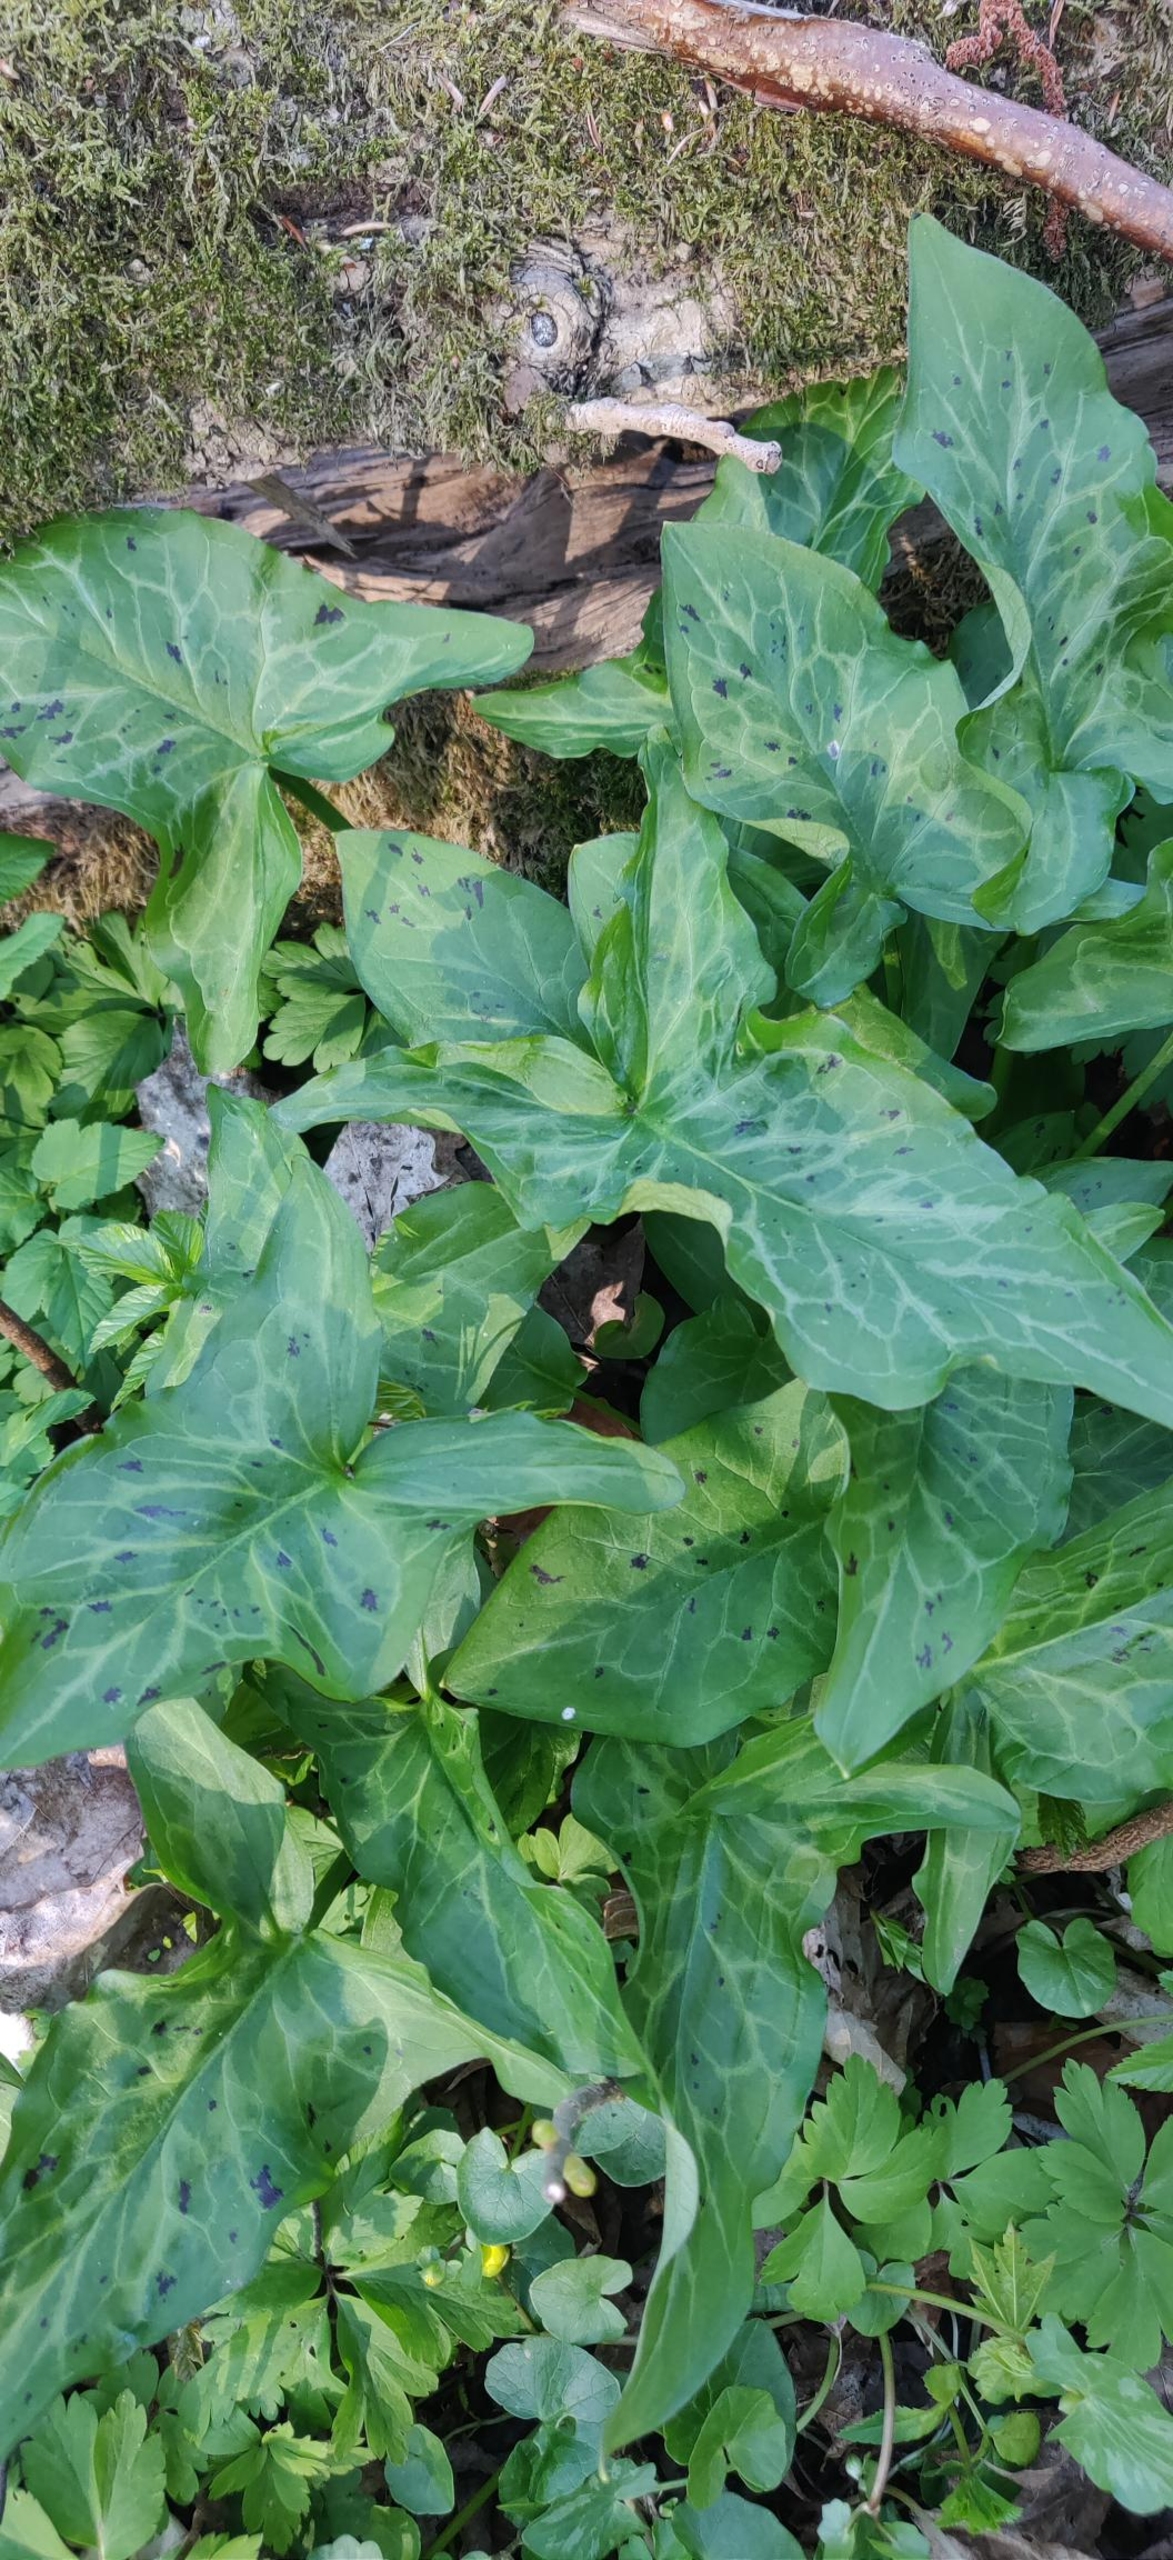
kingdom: Plantae
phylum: Tracheophyta
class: Liliopsida
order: Alismatales
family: Araceae
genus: Arum
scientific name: Arum maculatum
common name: Plettet arum
